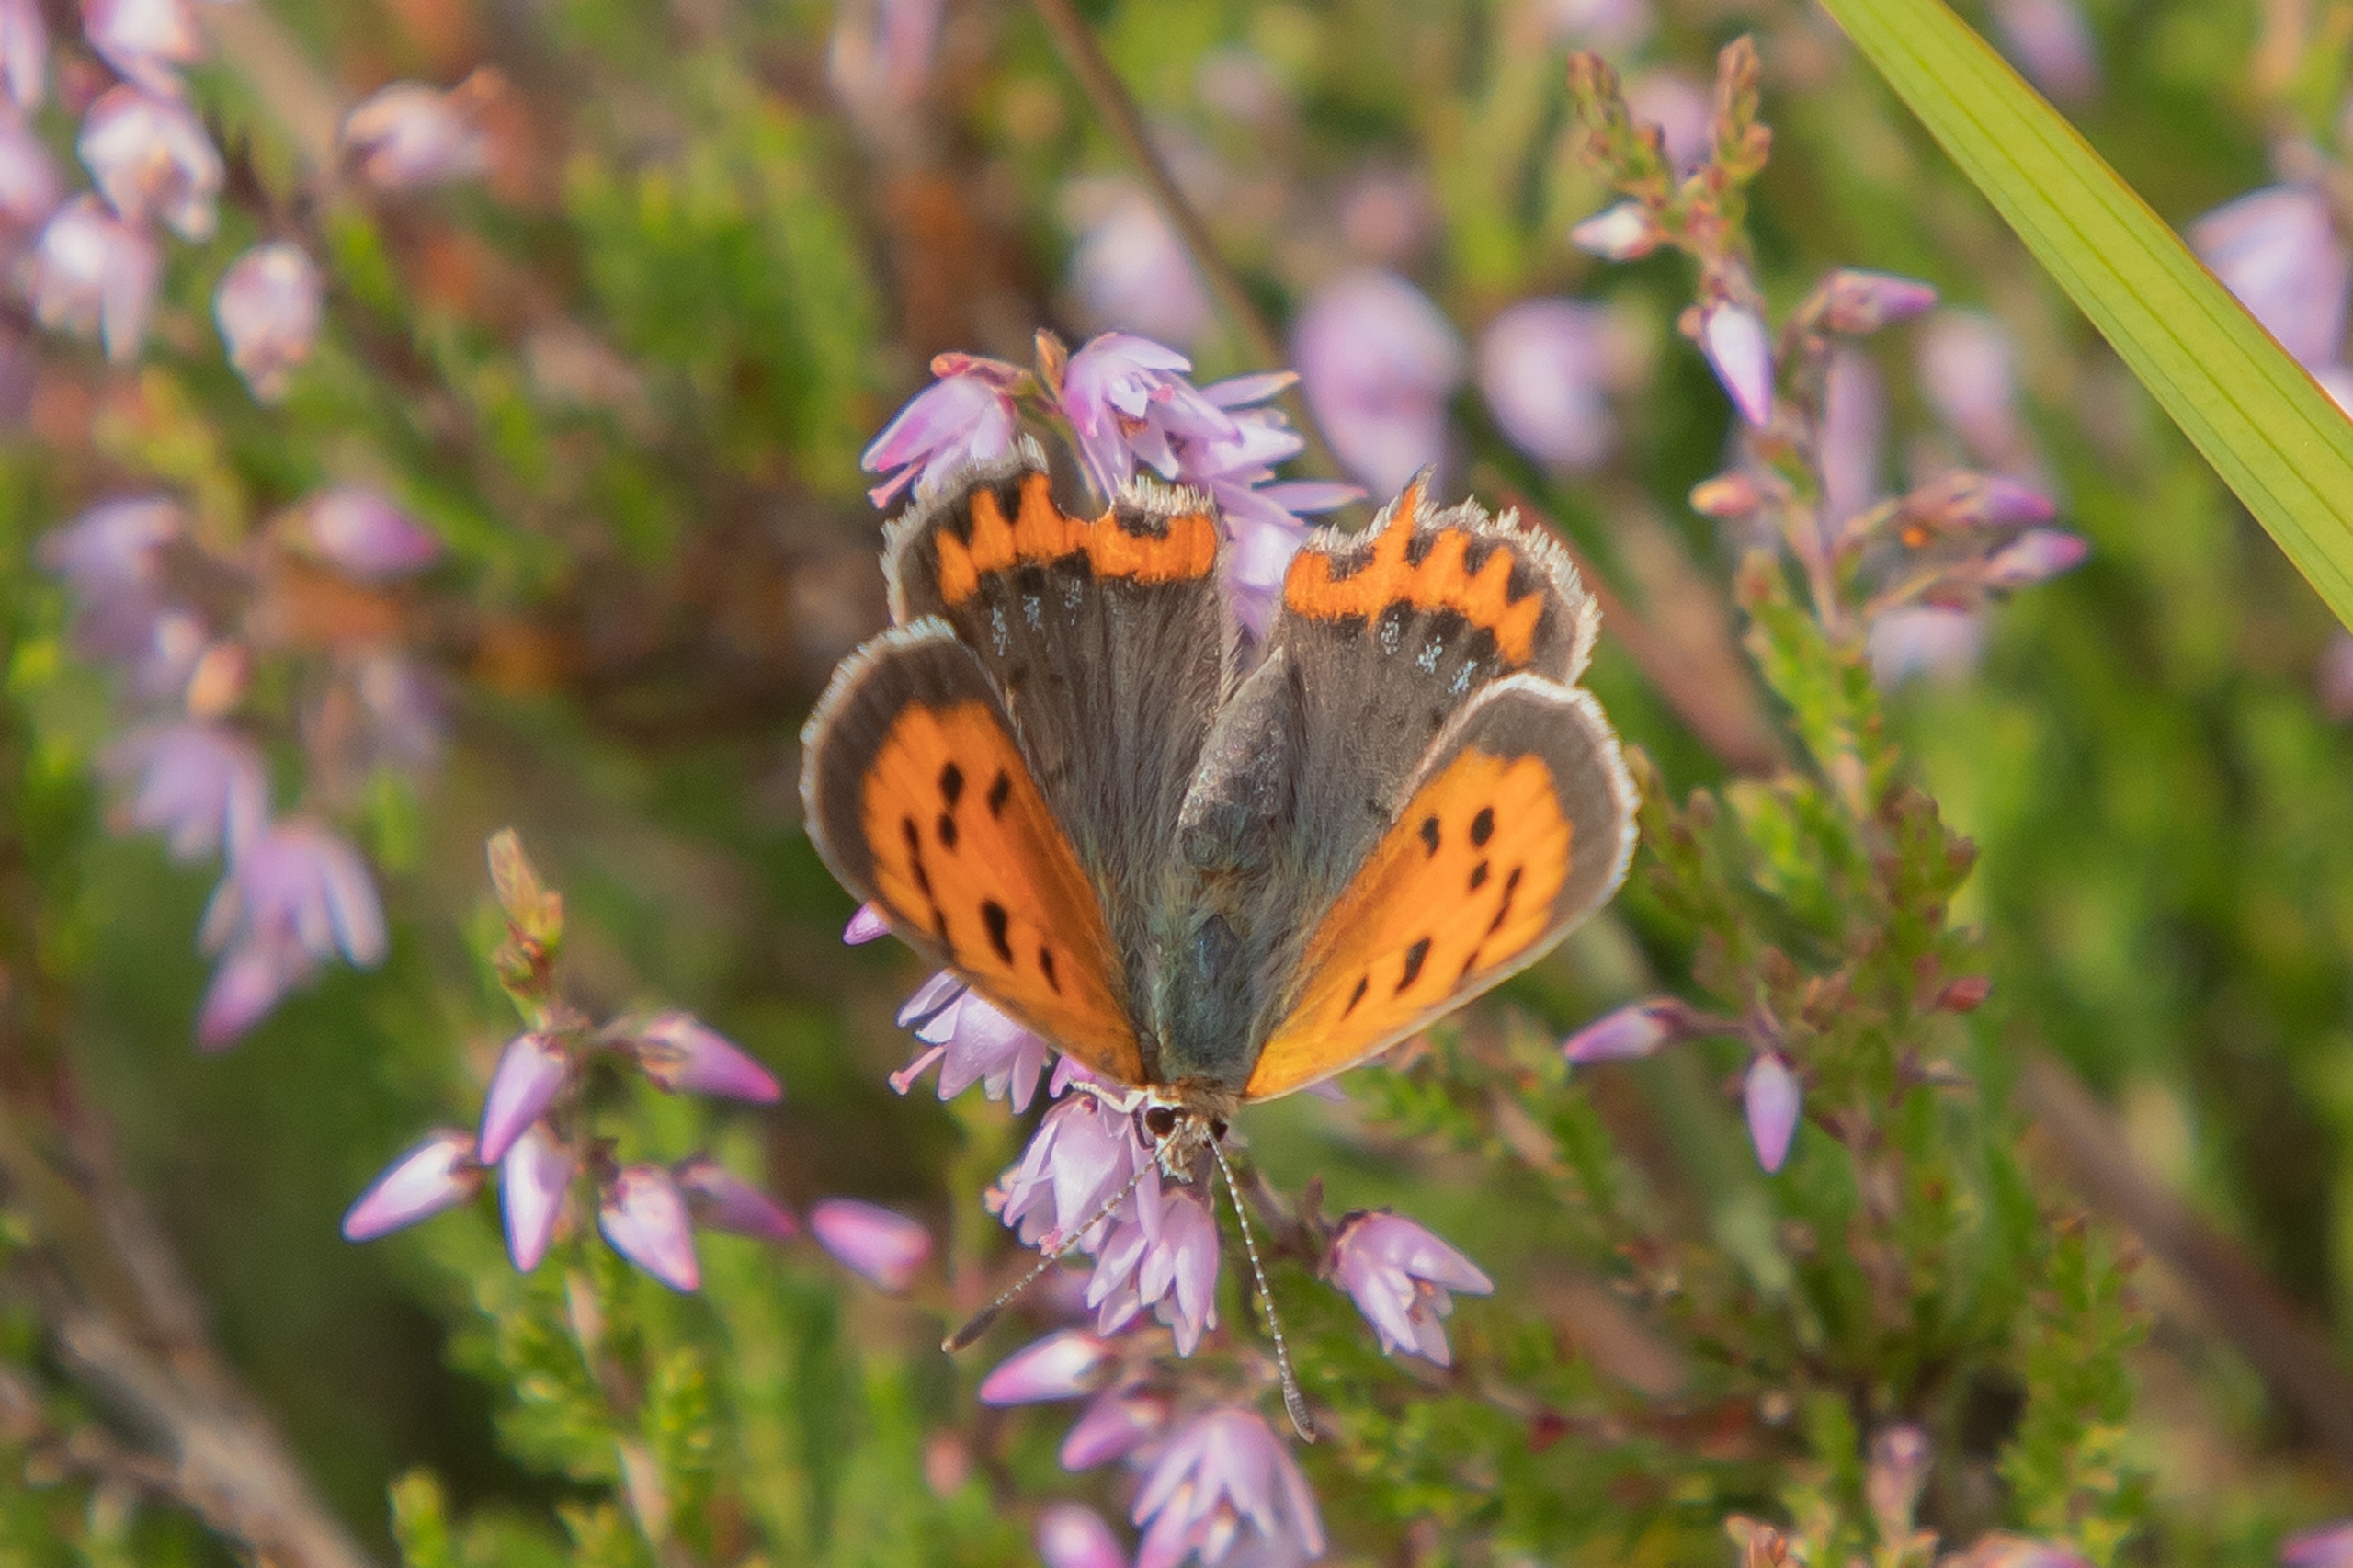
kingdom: Animalia
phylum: Arthropoda
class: Insecta
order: Lepidoptera
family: Lycaenidae
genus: Lycaena
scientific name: Lycaena phlaeas
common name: Lille ildfugl
